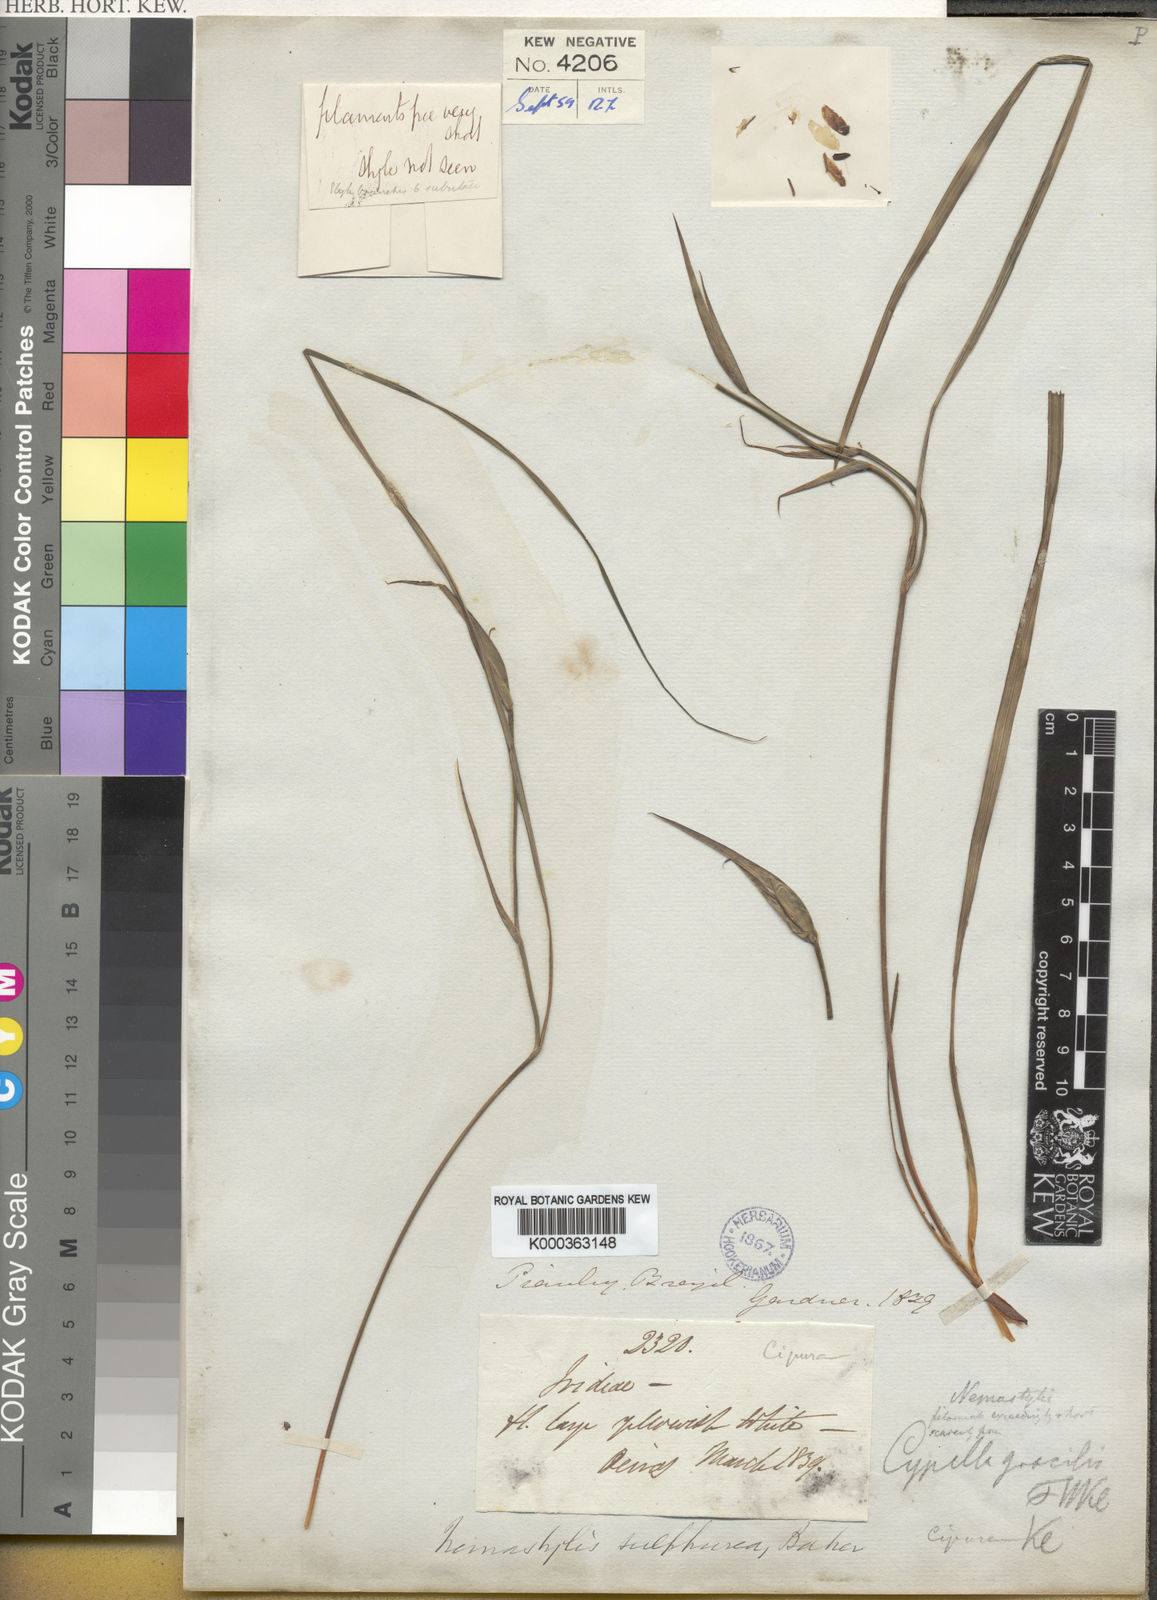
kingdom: Plantae
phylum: Tracheophyta
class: Liliopsida
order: Asparagales
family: Iridaceae
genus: Nemastylis
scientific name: Nemastylis sulphurea
